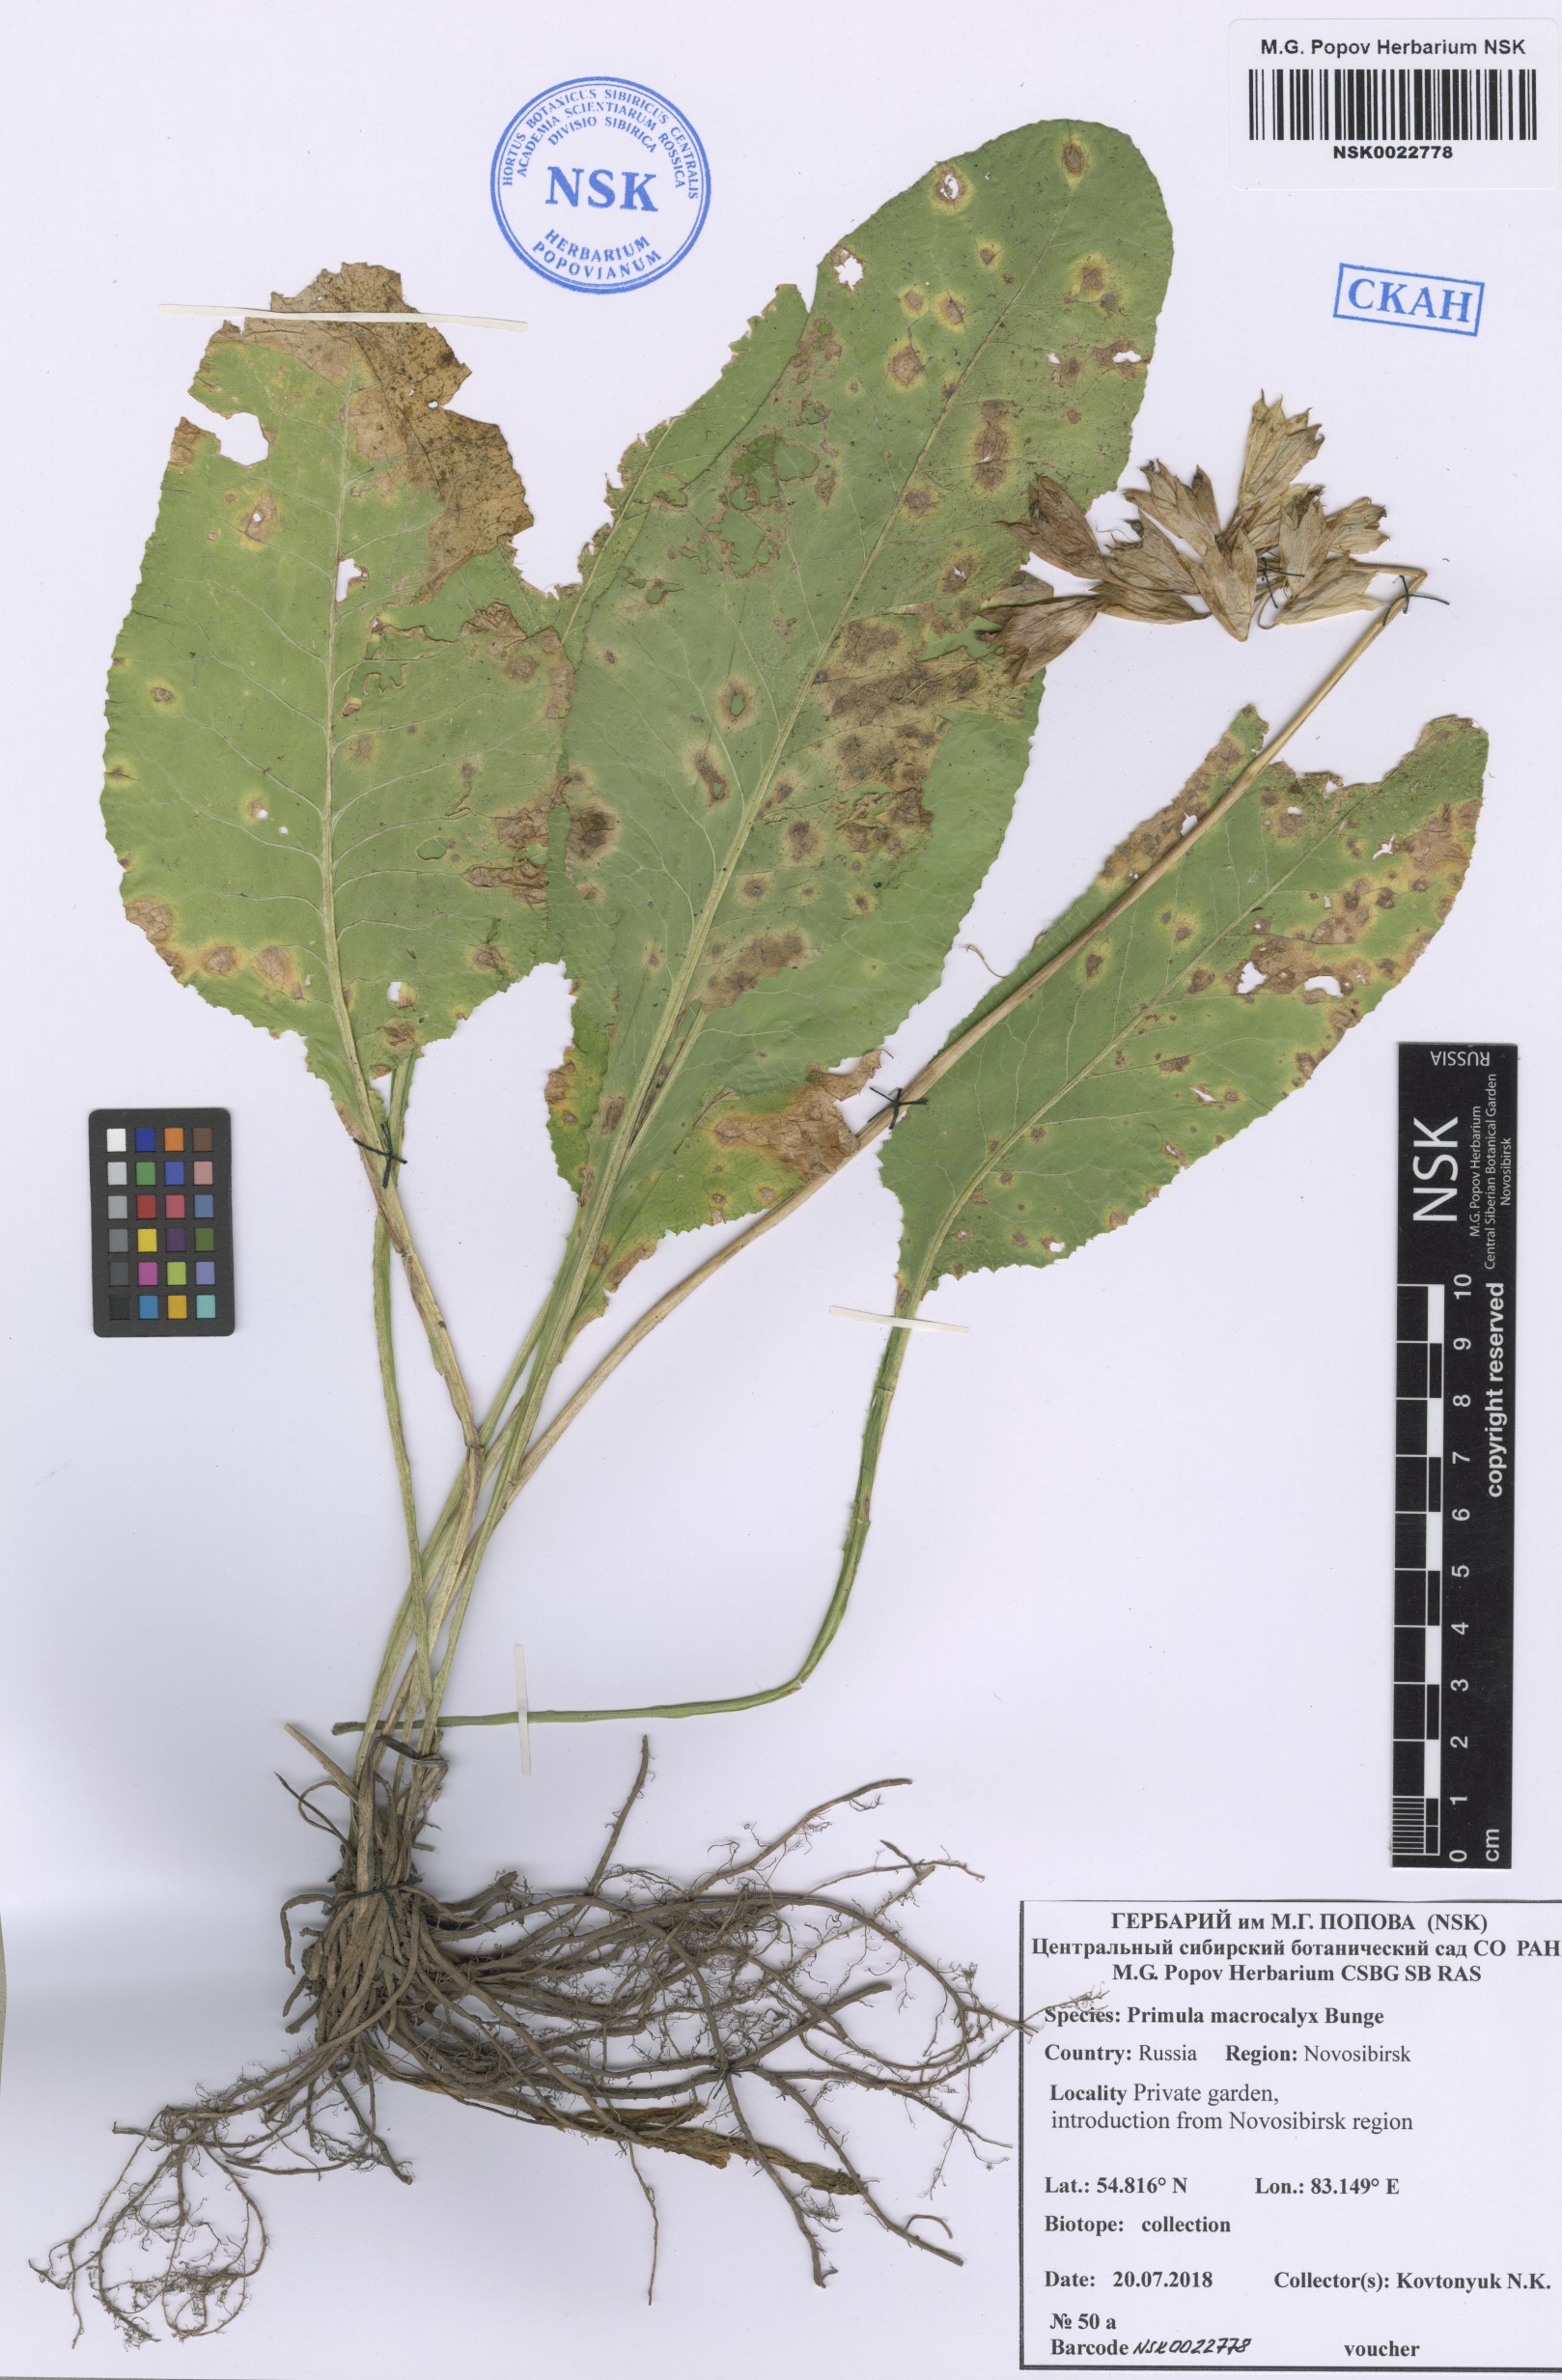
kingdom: Plantae
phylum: Tracheophyta
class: Magnoliopsida
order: Ericales
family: Primulaceae
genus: Primula
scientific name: Primula veris
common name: Cowslip
